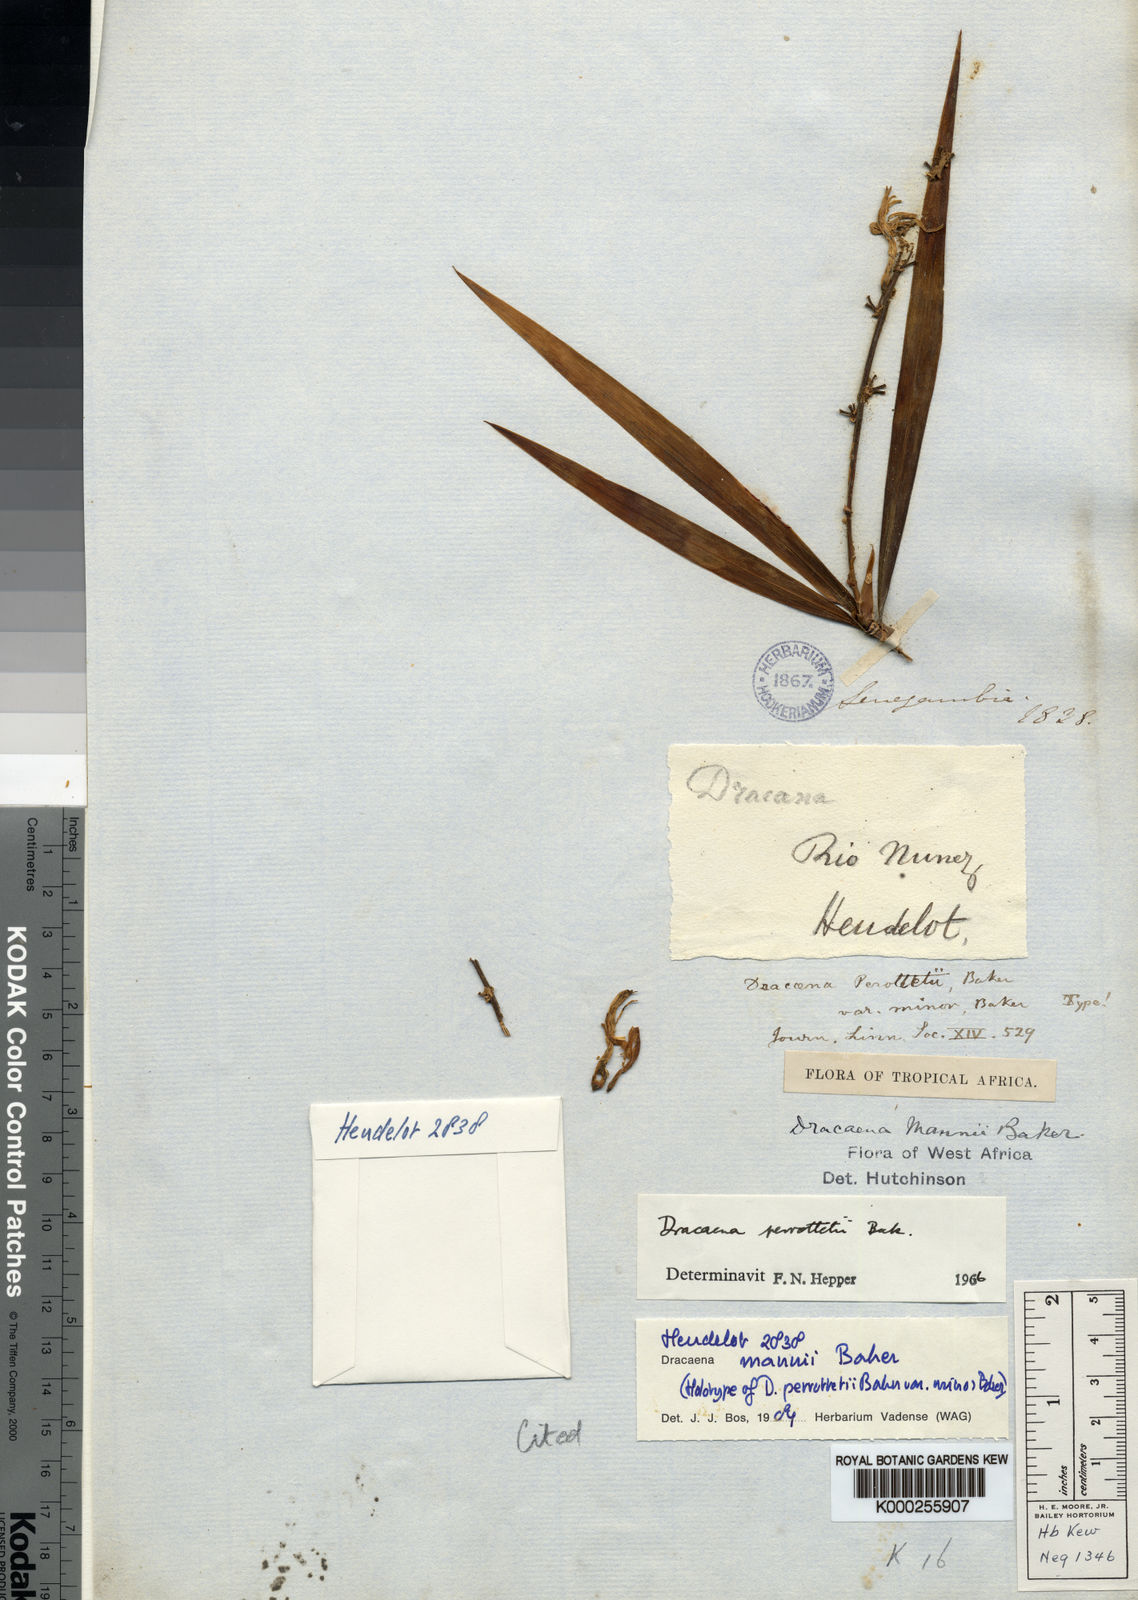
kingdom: Plantae
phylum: Tracheophyta
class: Liliopsida
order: Asparagales
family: Asparagaceae
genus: Dracaena
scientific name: Dracaena perrottetii
